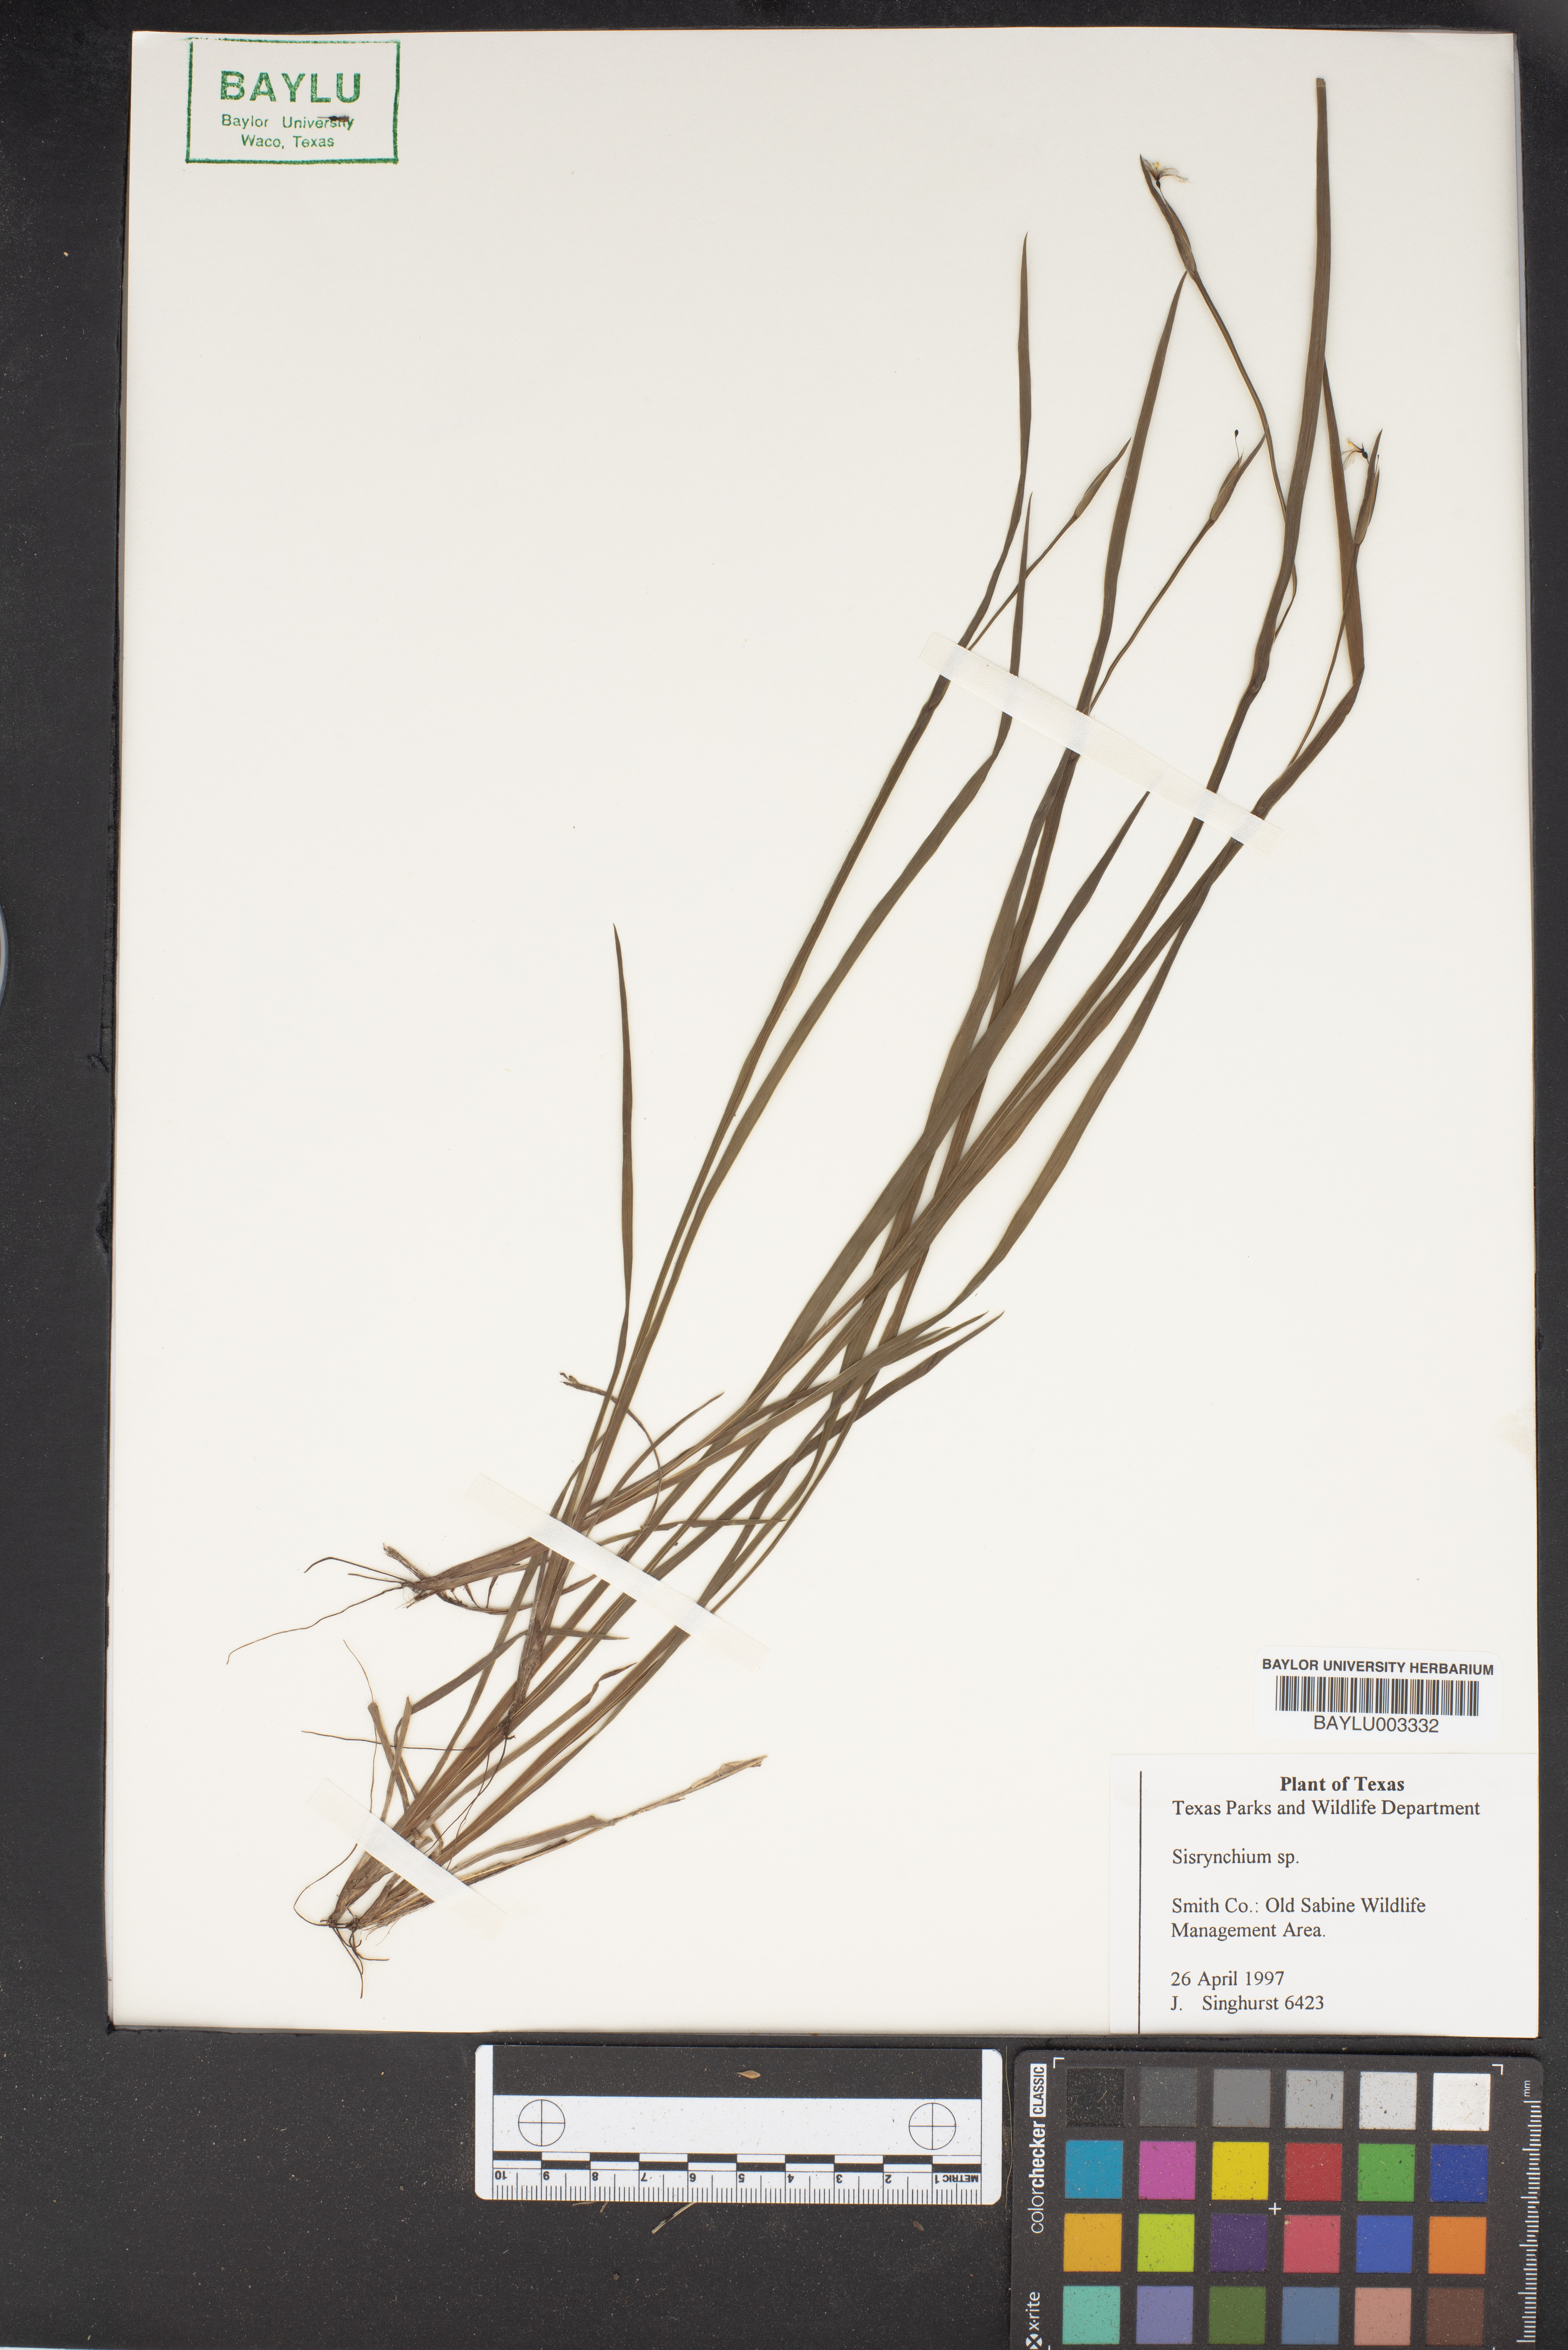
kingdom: Plantae
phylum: Tracheophyta
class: Magnoliopsida
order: Brassicales
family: Brassicaceae
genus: Sisymbrium
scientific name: Sisymbrium
